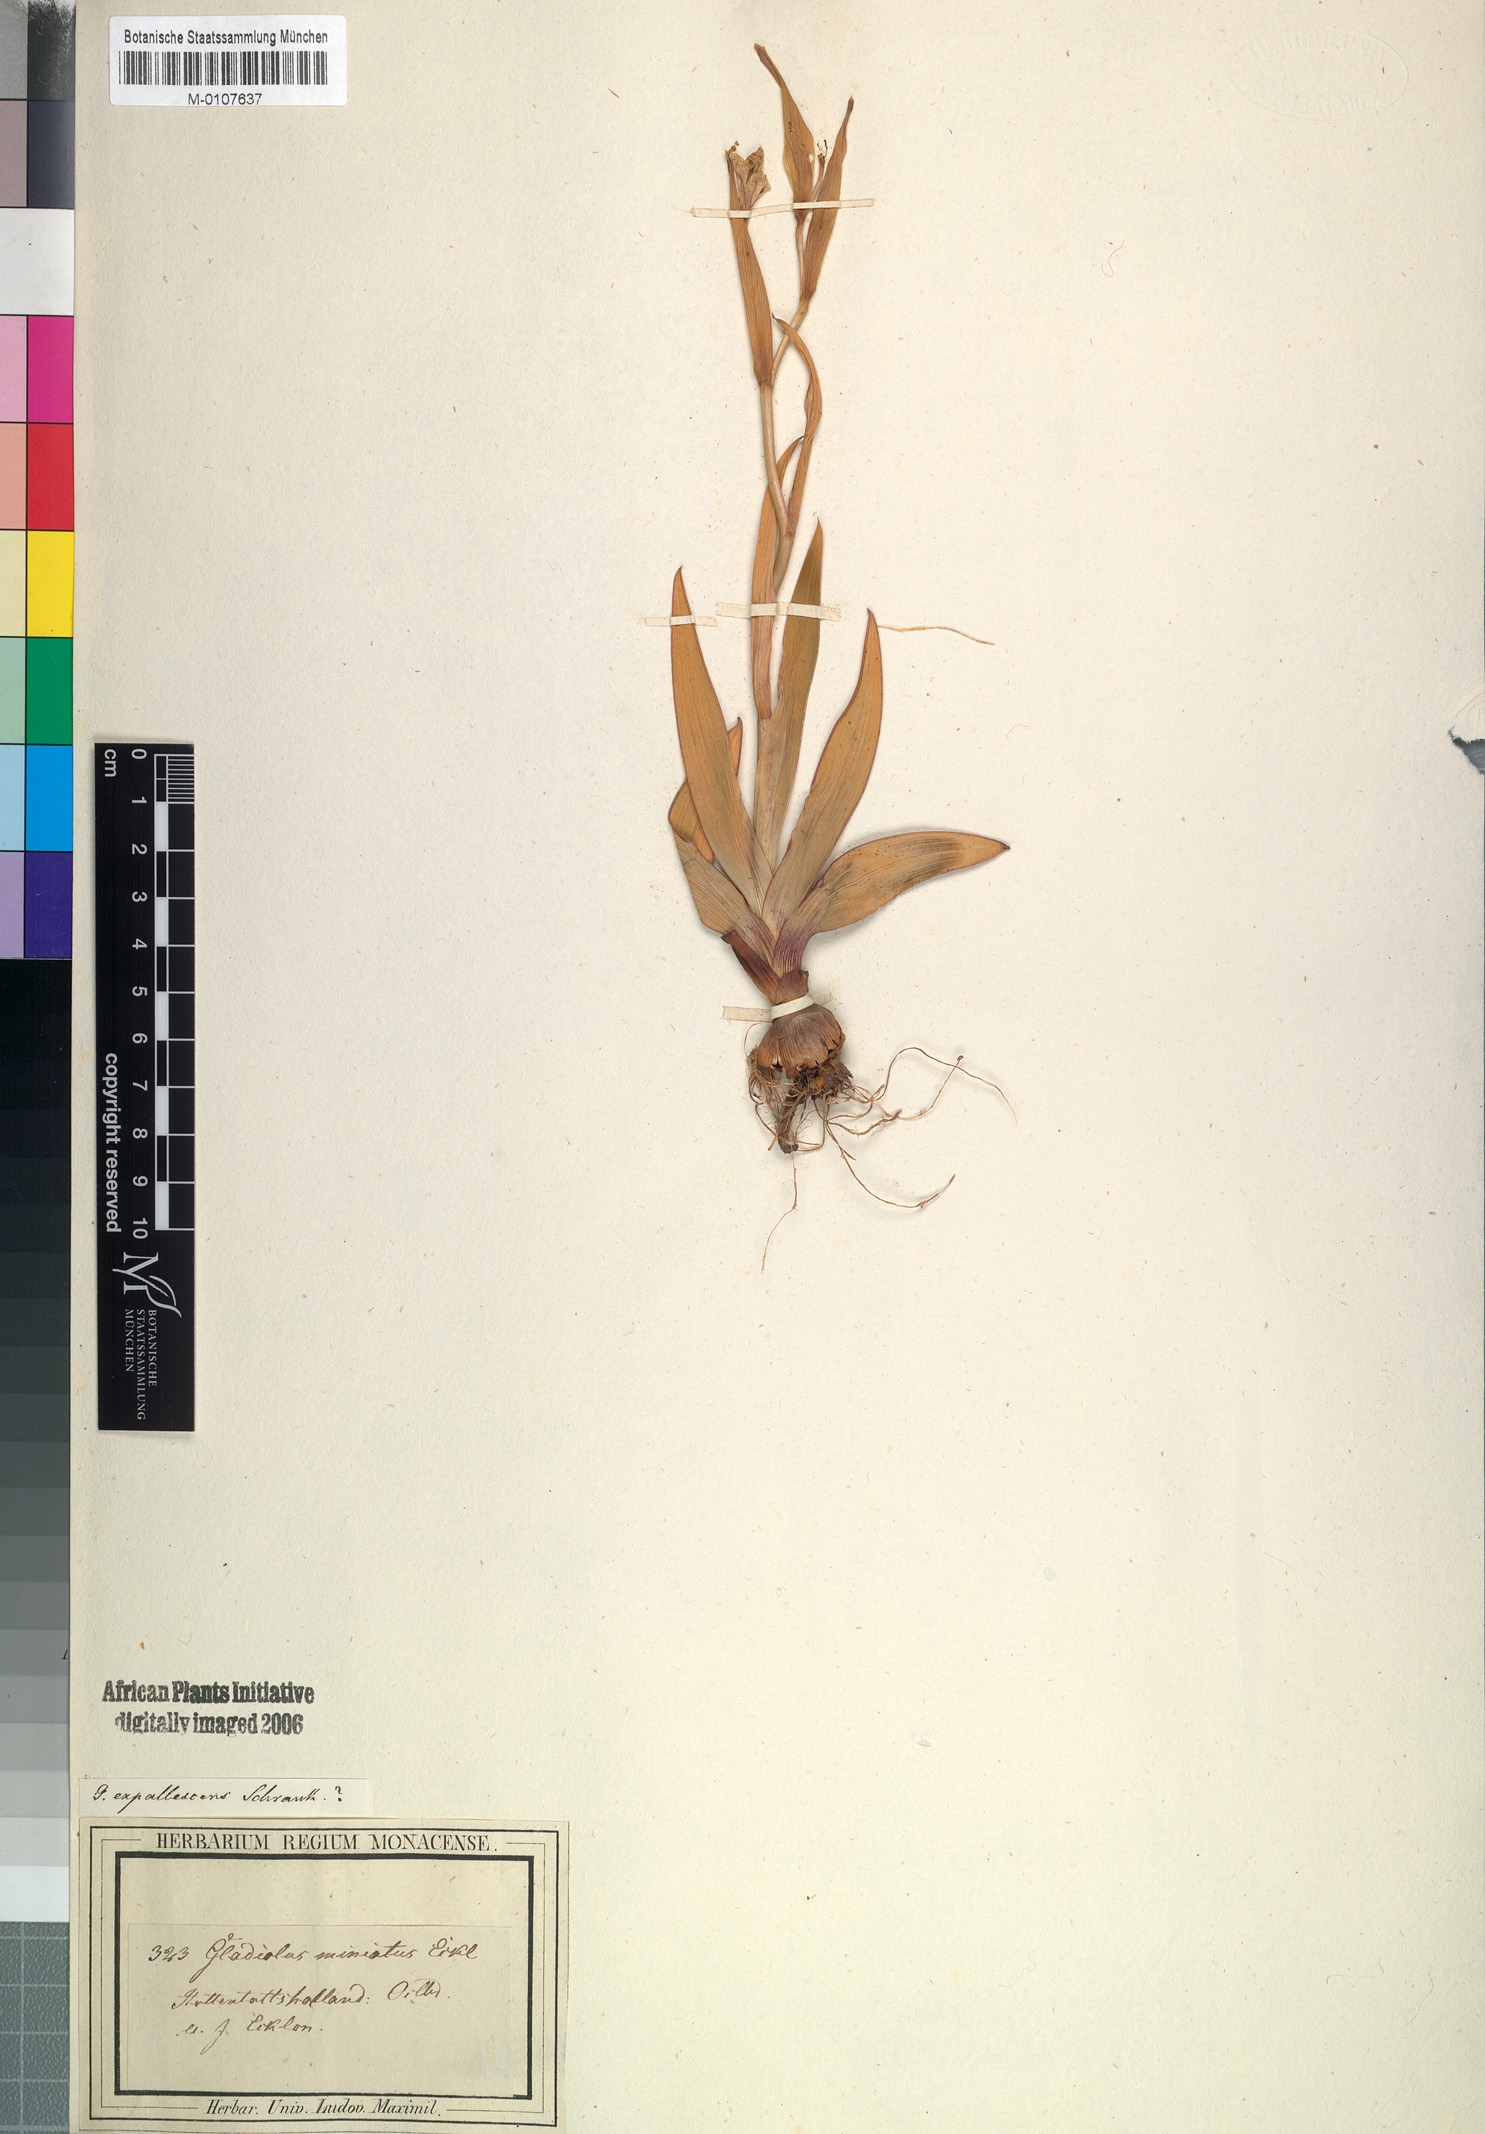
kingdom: Plantae
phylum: Tracheophyta
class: Liliopsida
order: Asparagales
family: Iridaceae
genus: Gladiolus
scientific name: Gladiolus miniatus
